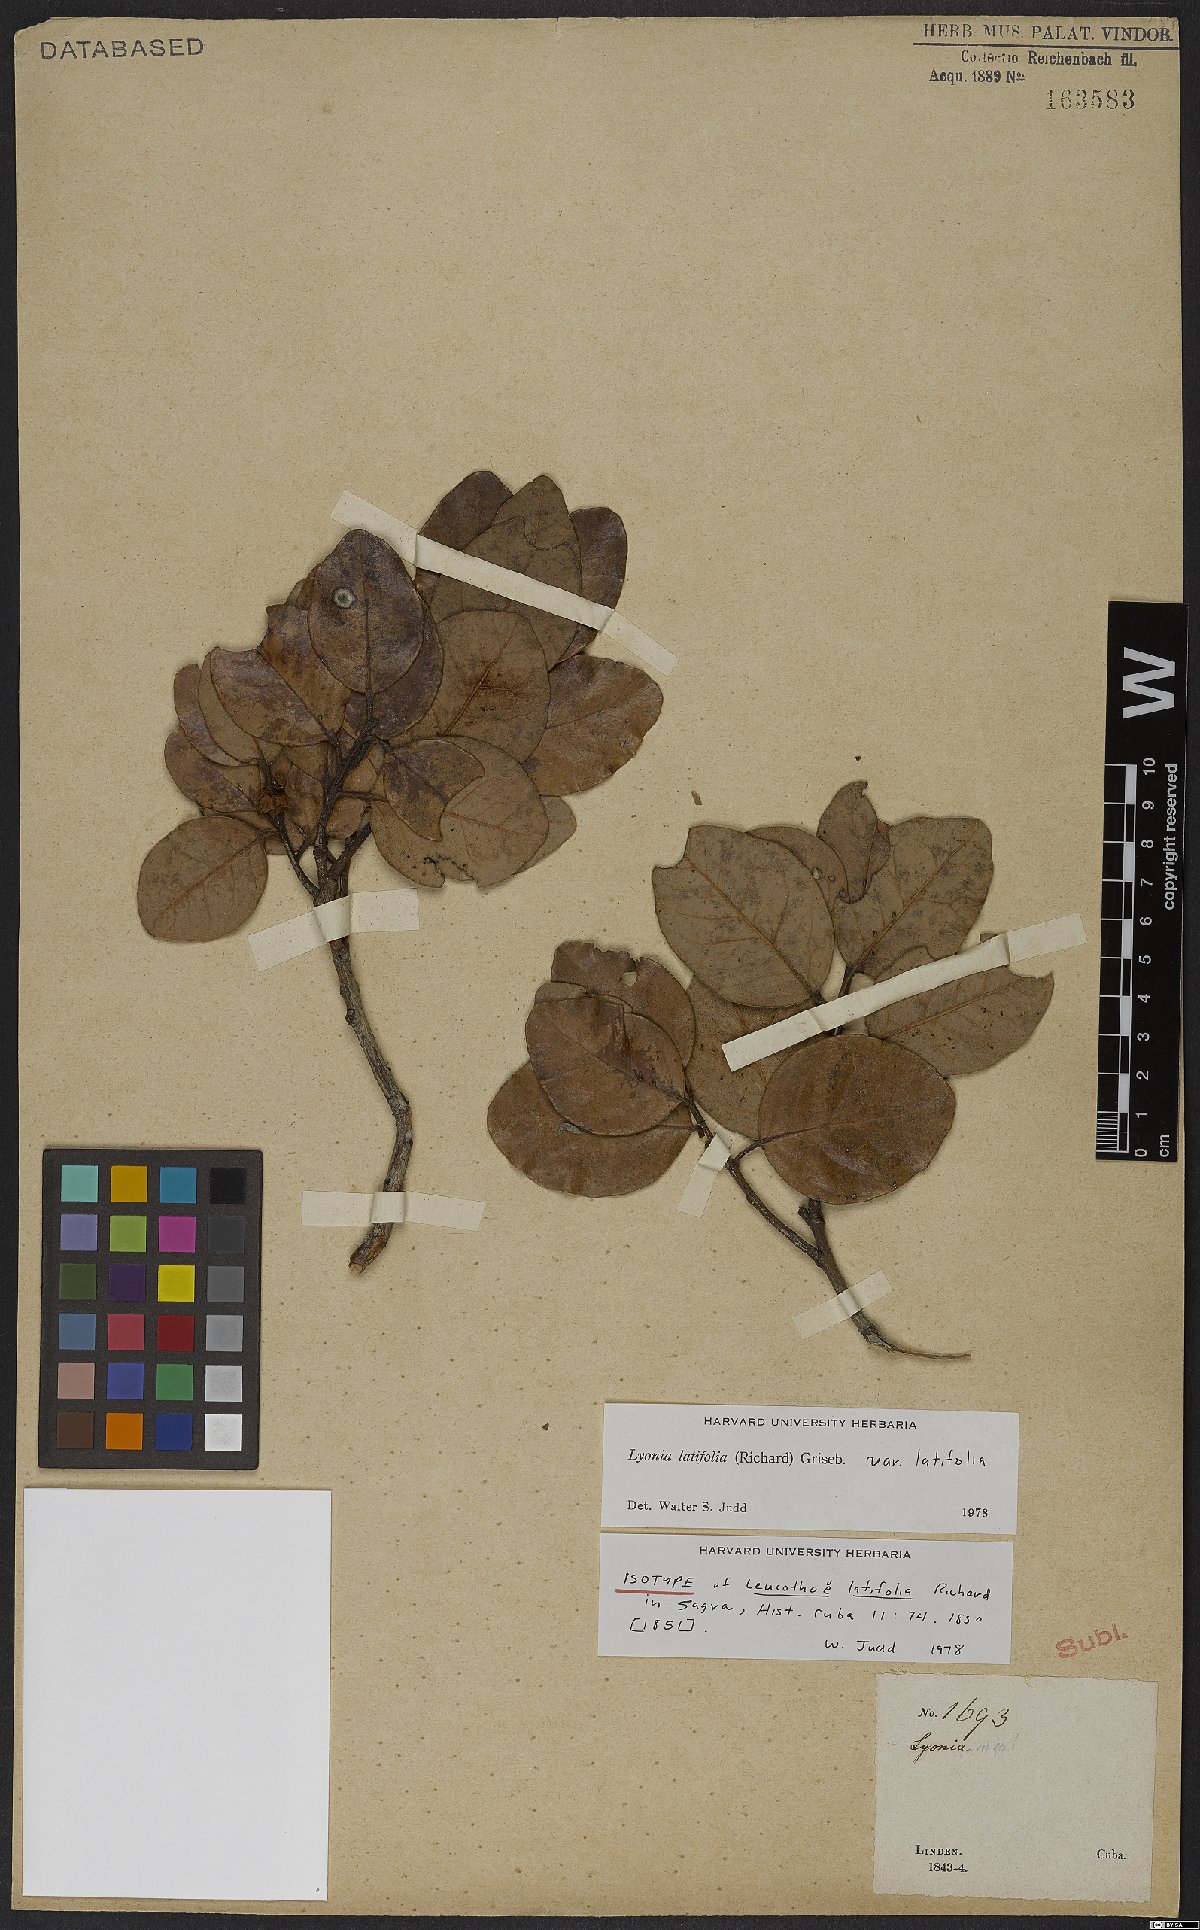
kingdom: Plantae
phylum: Tracheophyta
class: Magnoliopsida
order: Ericales
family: Ericaceae
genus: Lyonia
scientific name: Lyonia latifolia
